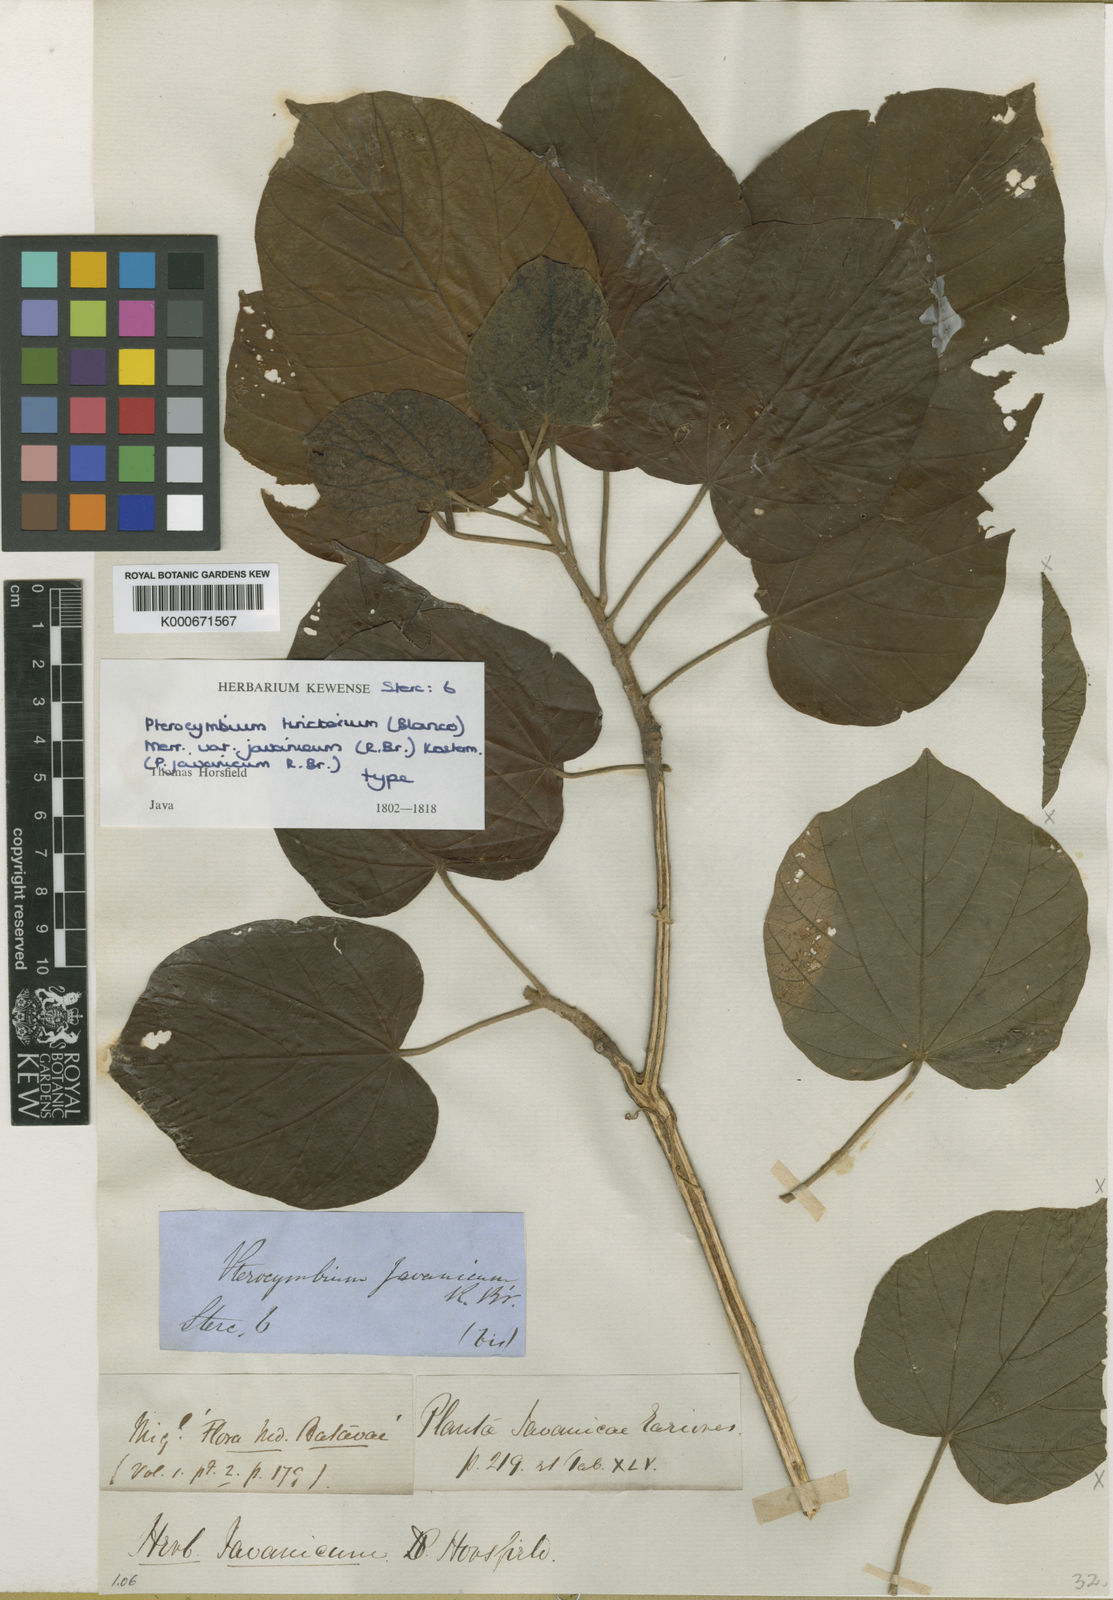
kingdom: Plantae
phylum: Tracheophyta
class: Magnoliopsida
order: Malvales
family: Malvaceae
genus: Pterocymbium
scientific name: Pterocymbium tinctorium
